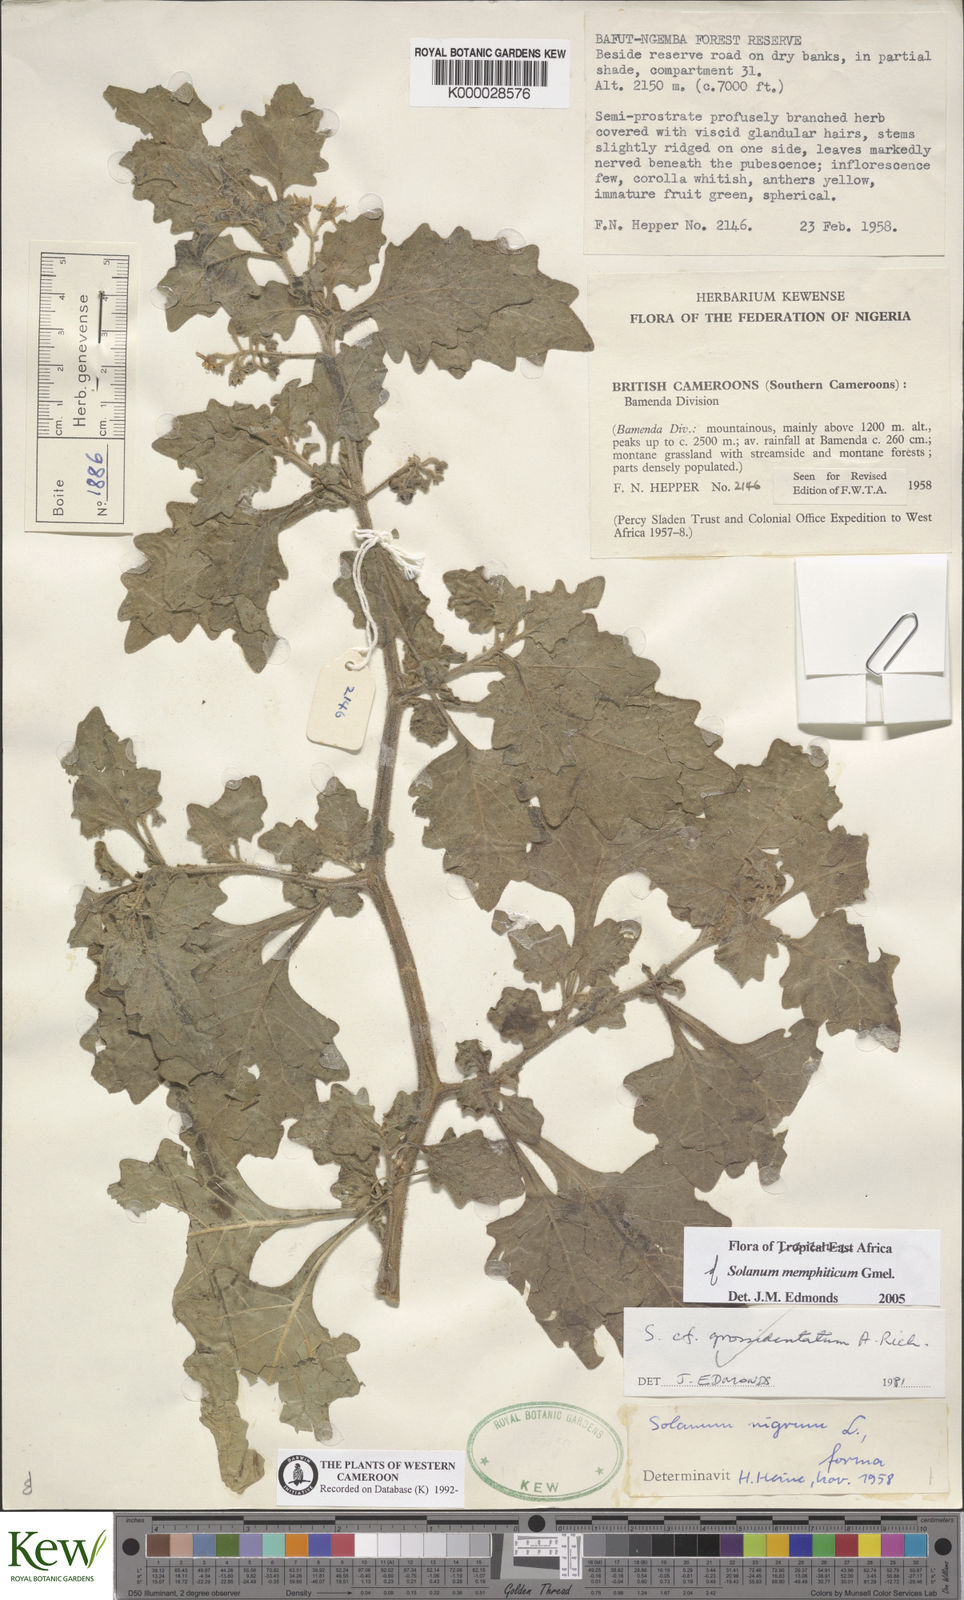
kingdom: Plantae
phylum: Tracheophyta
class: Magnoliopsida
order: Solanales
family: Solanaceae
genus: Solanum
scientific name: Solanum
